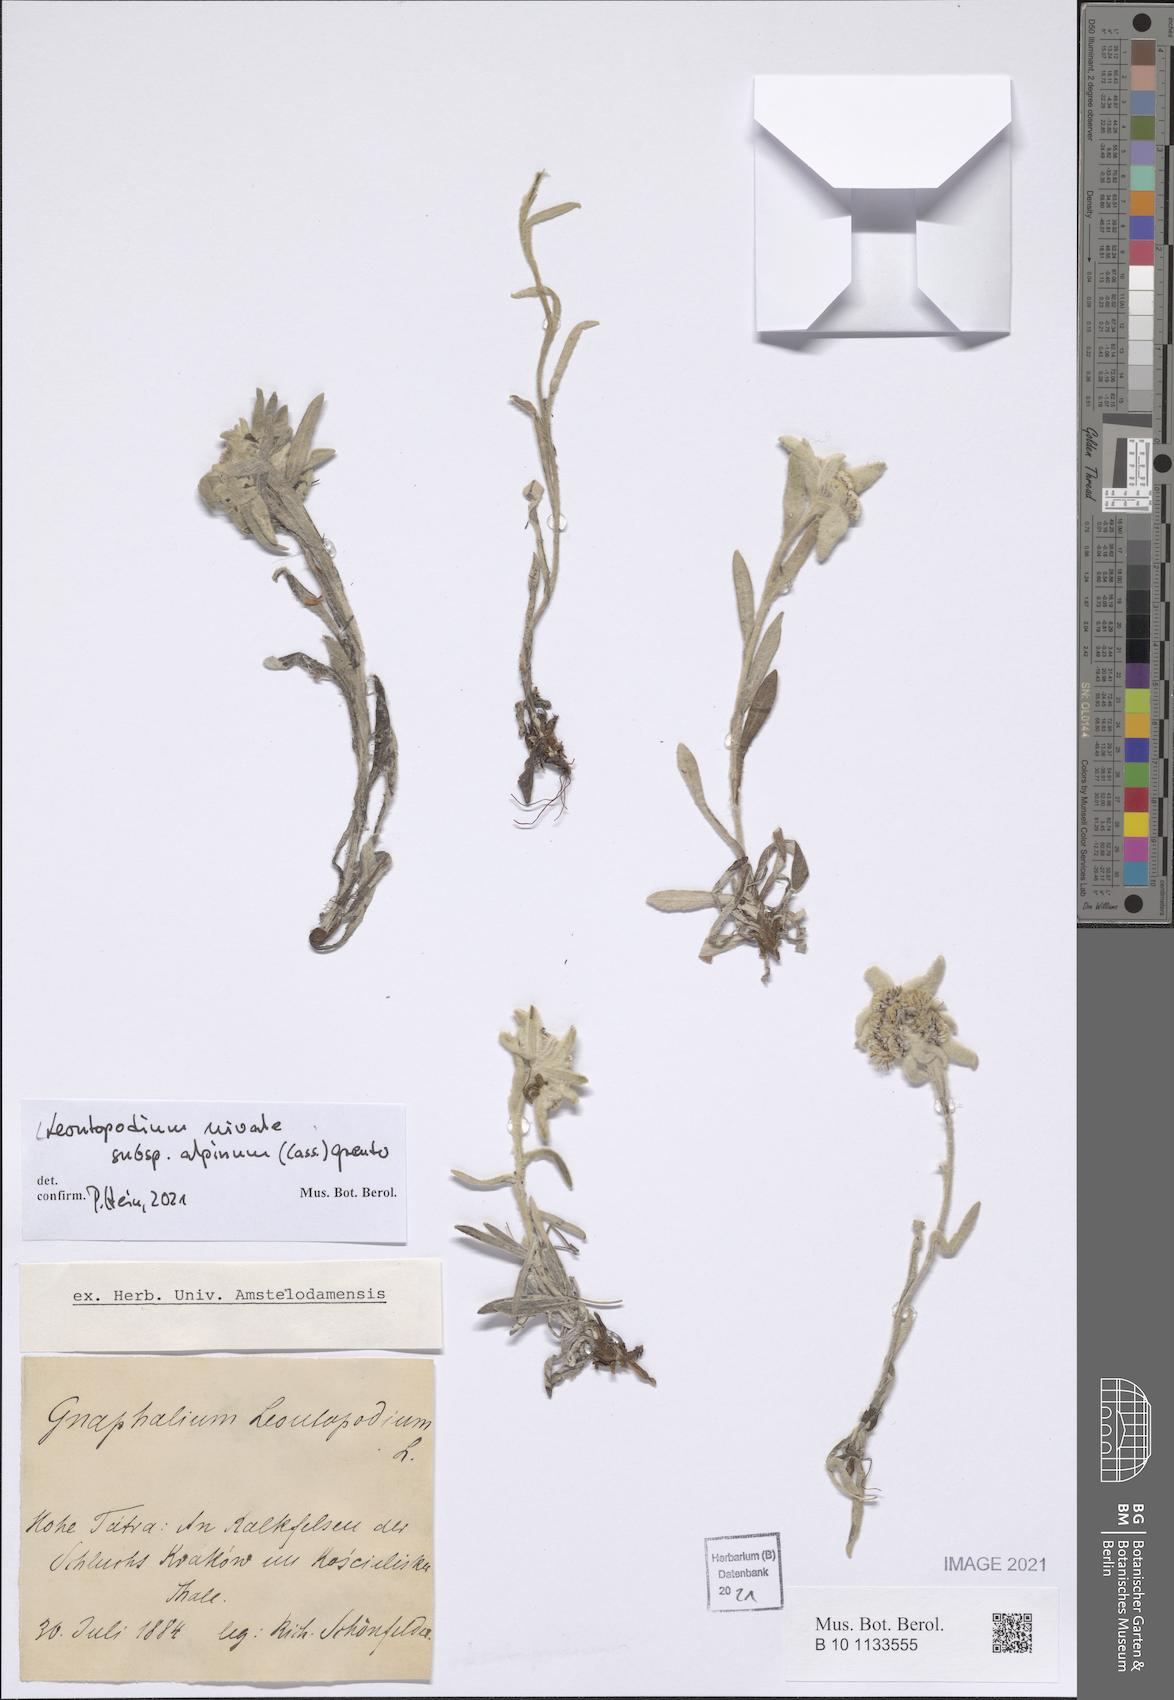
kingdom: Plantae
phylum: Tracheophyta
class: Magnoliopsida
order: Asterales
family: Asteraceae
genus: Leontopodium
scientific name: Leontopodium nivale
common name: Edelweiss
